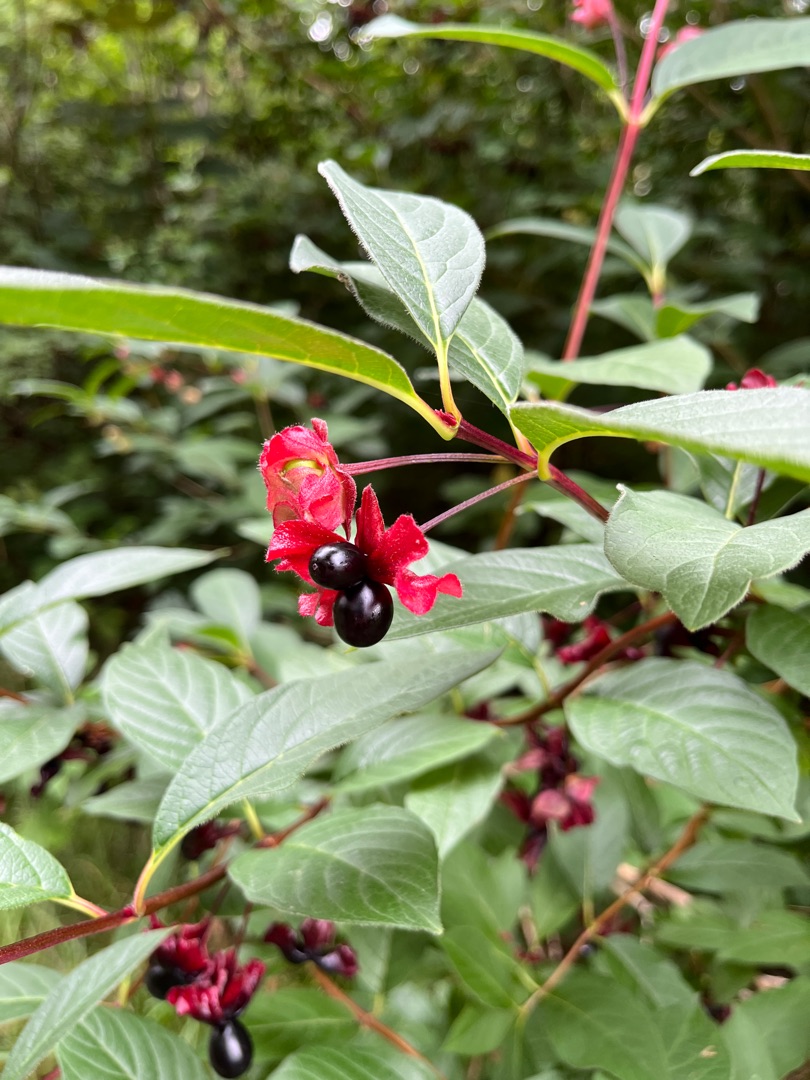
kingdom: Plantae
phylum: Tracheophyta
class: Magnoliopsida
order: Dipsacales
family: Caprifoliaceae
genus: Lonicera
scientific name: Lonicera involucrata
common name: Svøb-gedeblad
